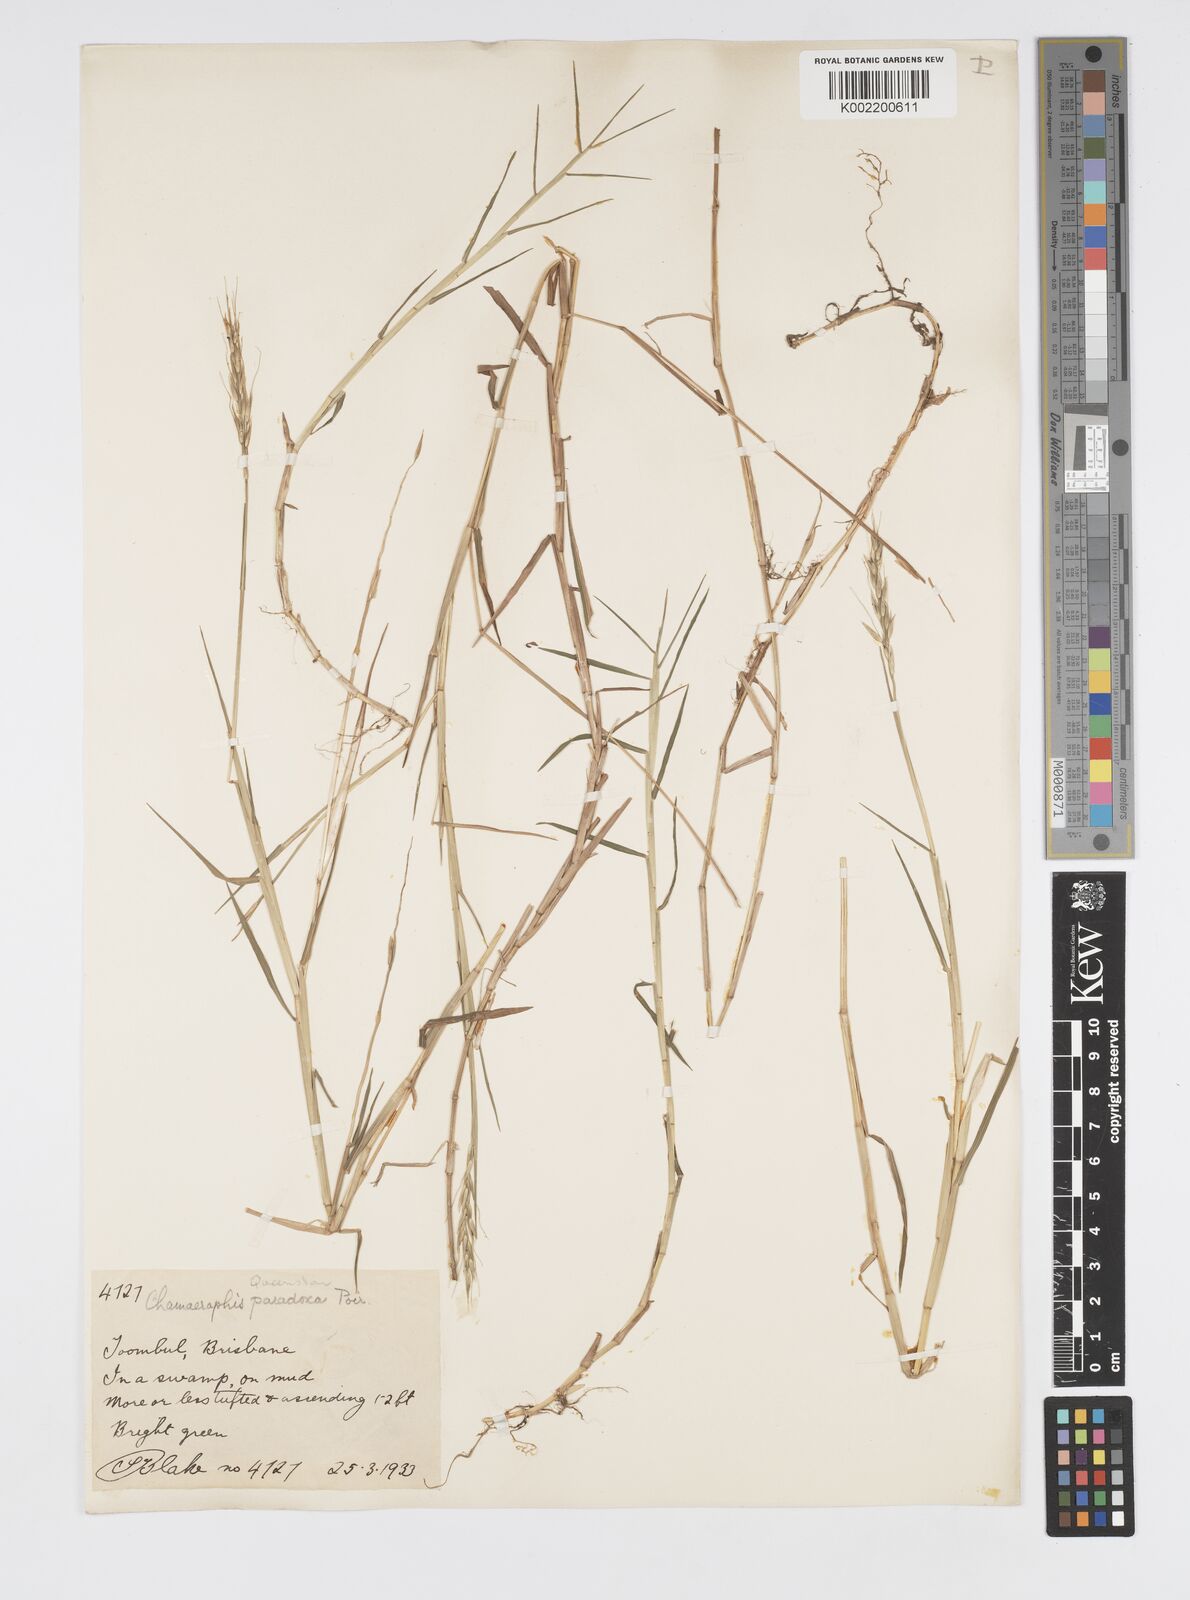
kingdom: Plantae
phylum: Tracheophyta
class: Liliopsida
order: Poales
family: Poaceae
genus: Pseudoraphis
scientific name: Pseudoraphis paradoxa
